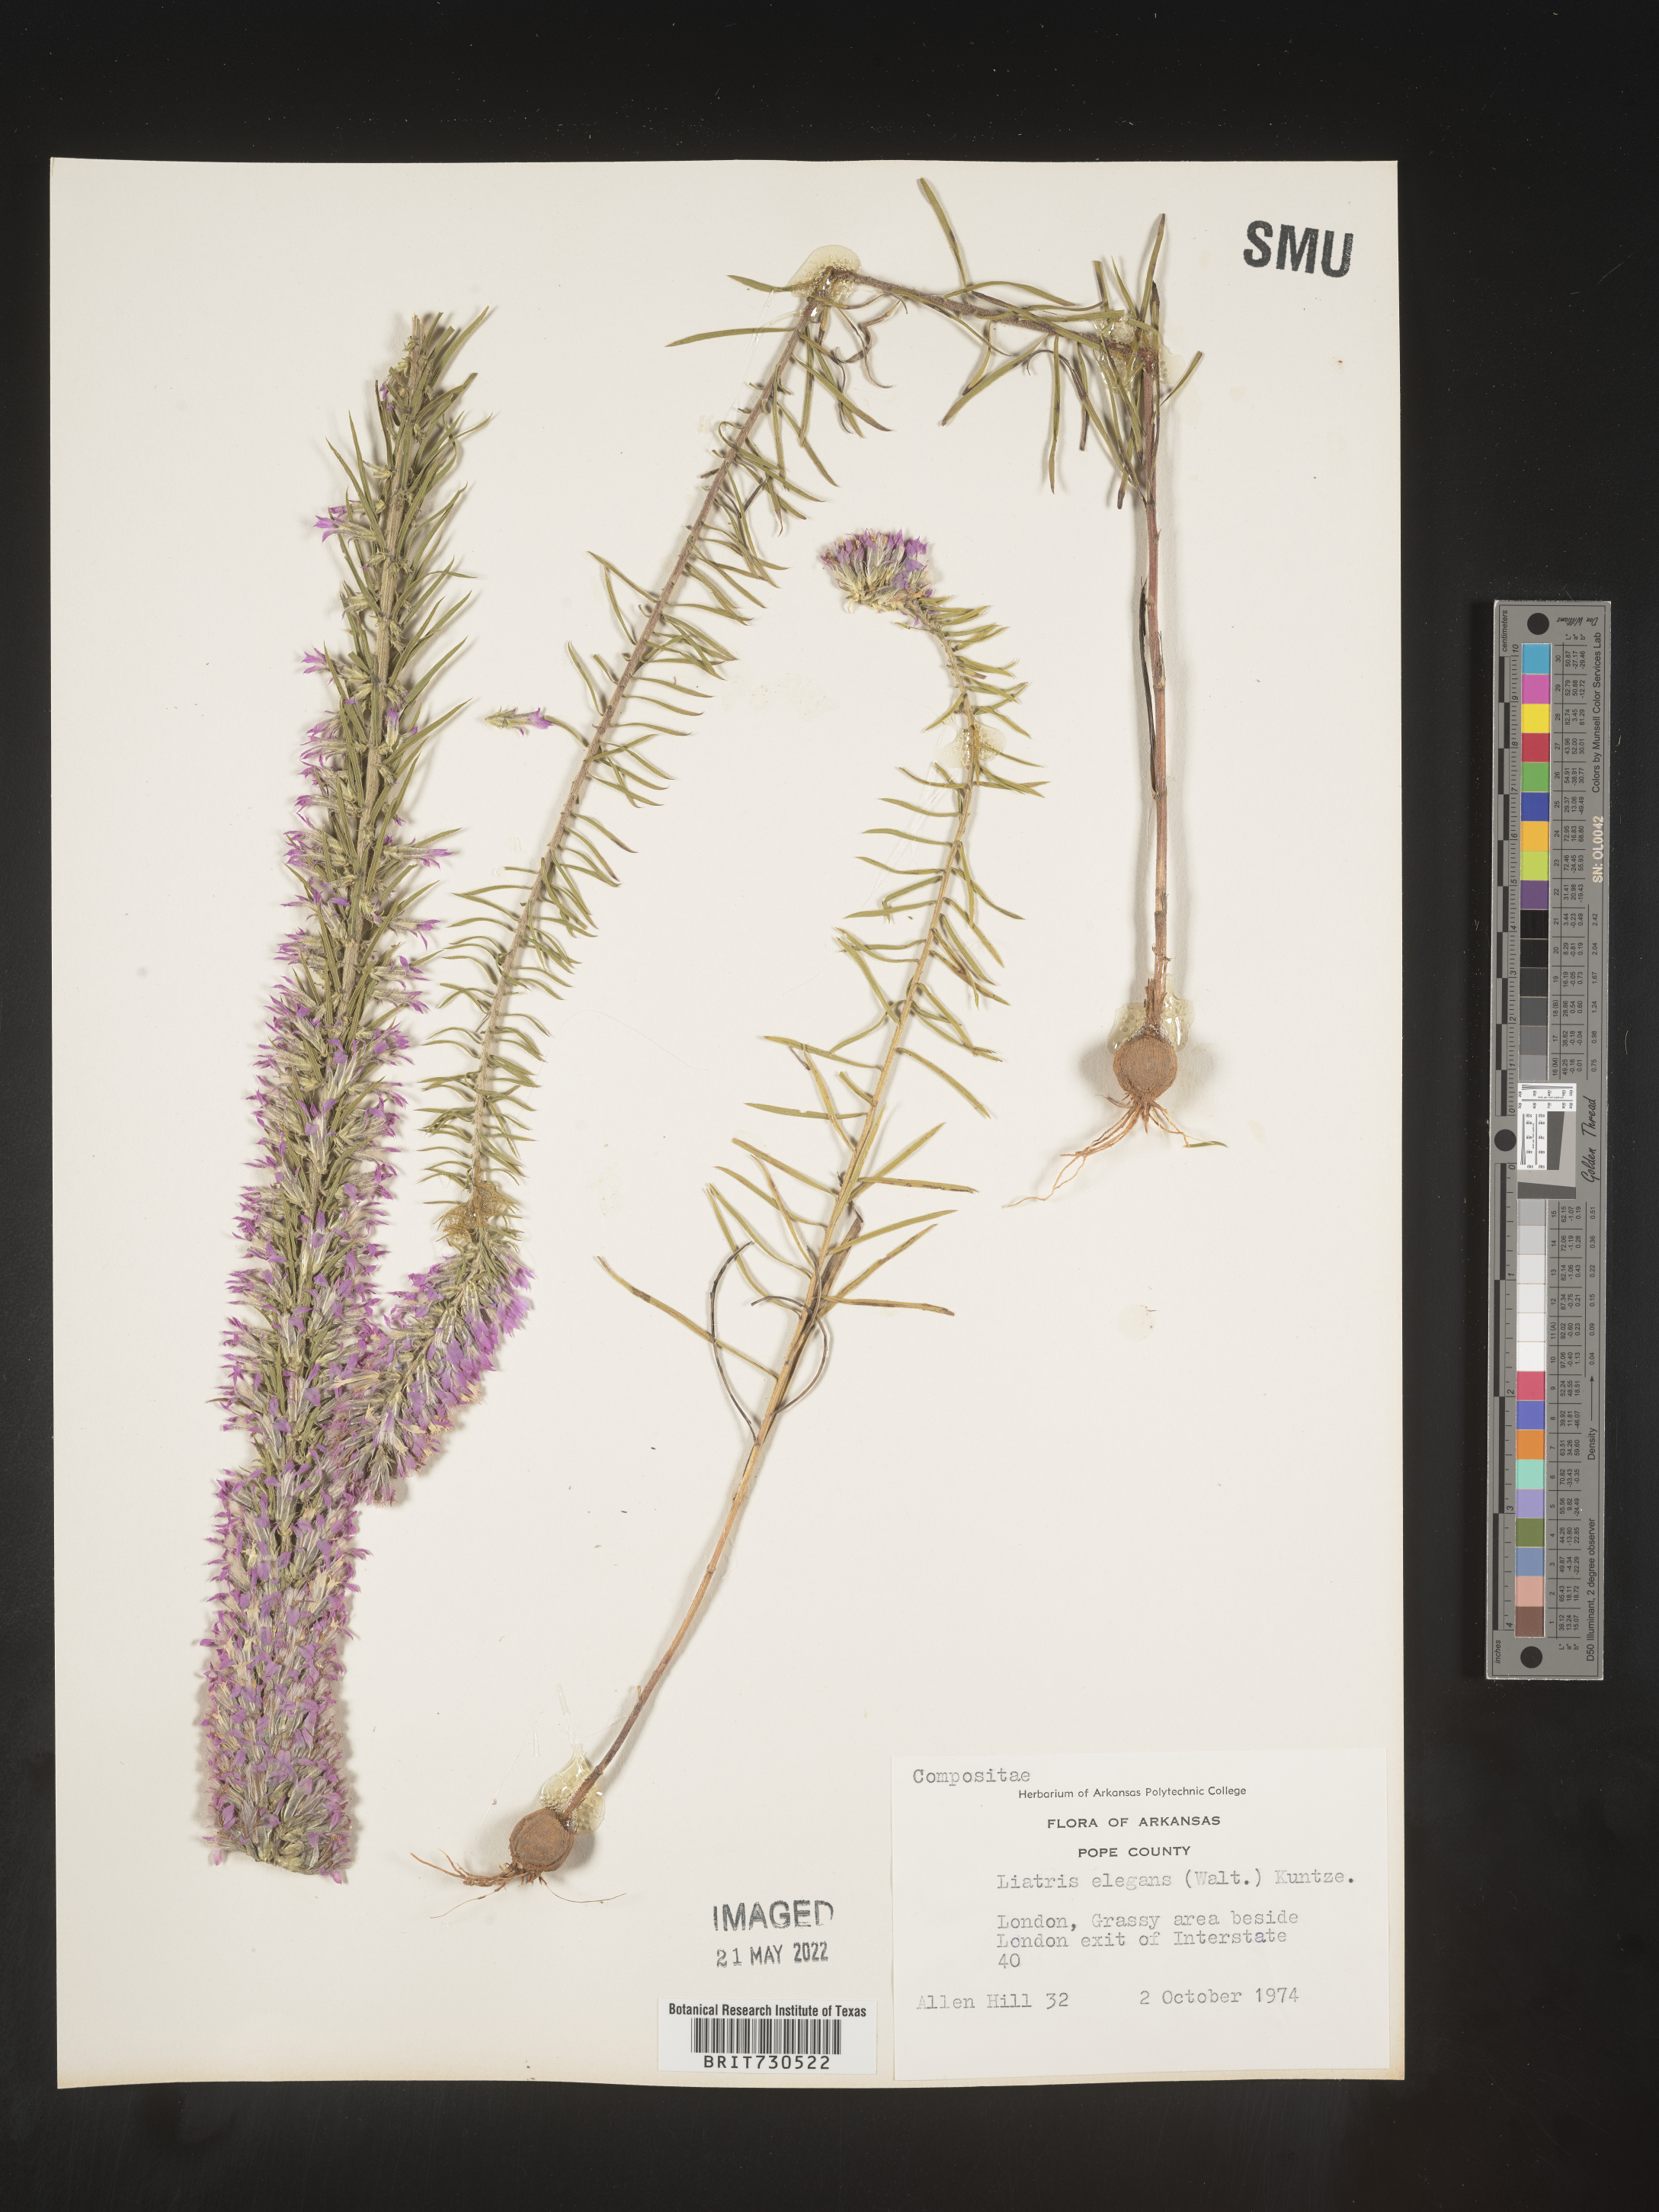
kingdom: Plantae
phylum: Tracheophyta
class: Magnoliopsida
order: Asterales
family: Asteraceae
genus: Liatris
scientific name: Liatris elegans
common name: Pinkscale gayfeather
